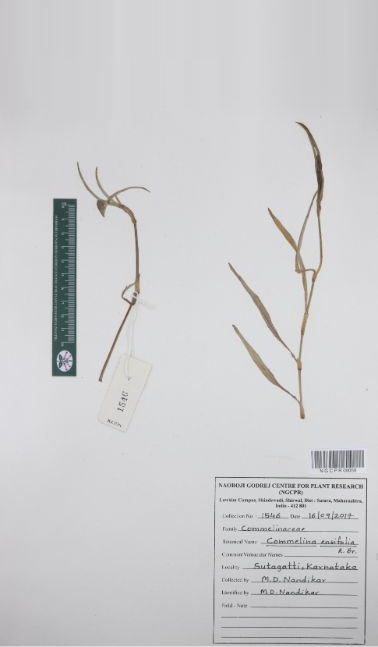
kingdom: Plantae
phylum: Tracheophyta
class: Liliopsida
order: Commelinales
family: Commelinaceae
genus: Commelina
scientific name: Commelina ensifolia
